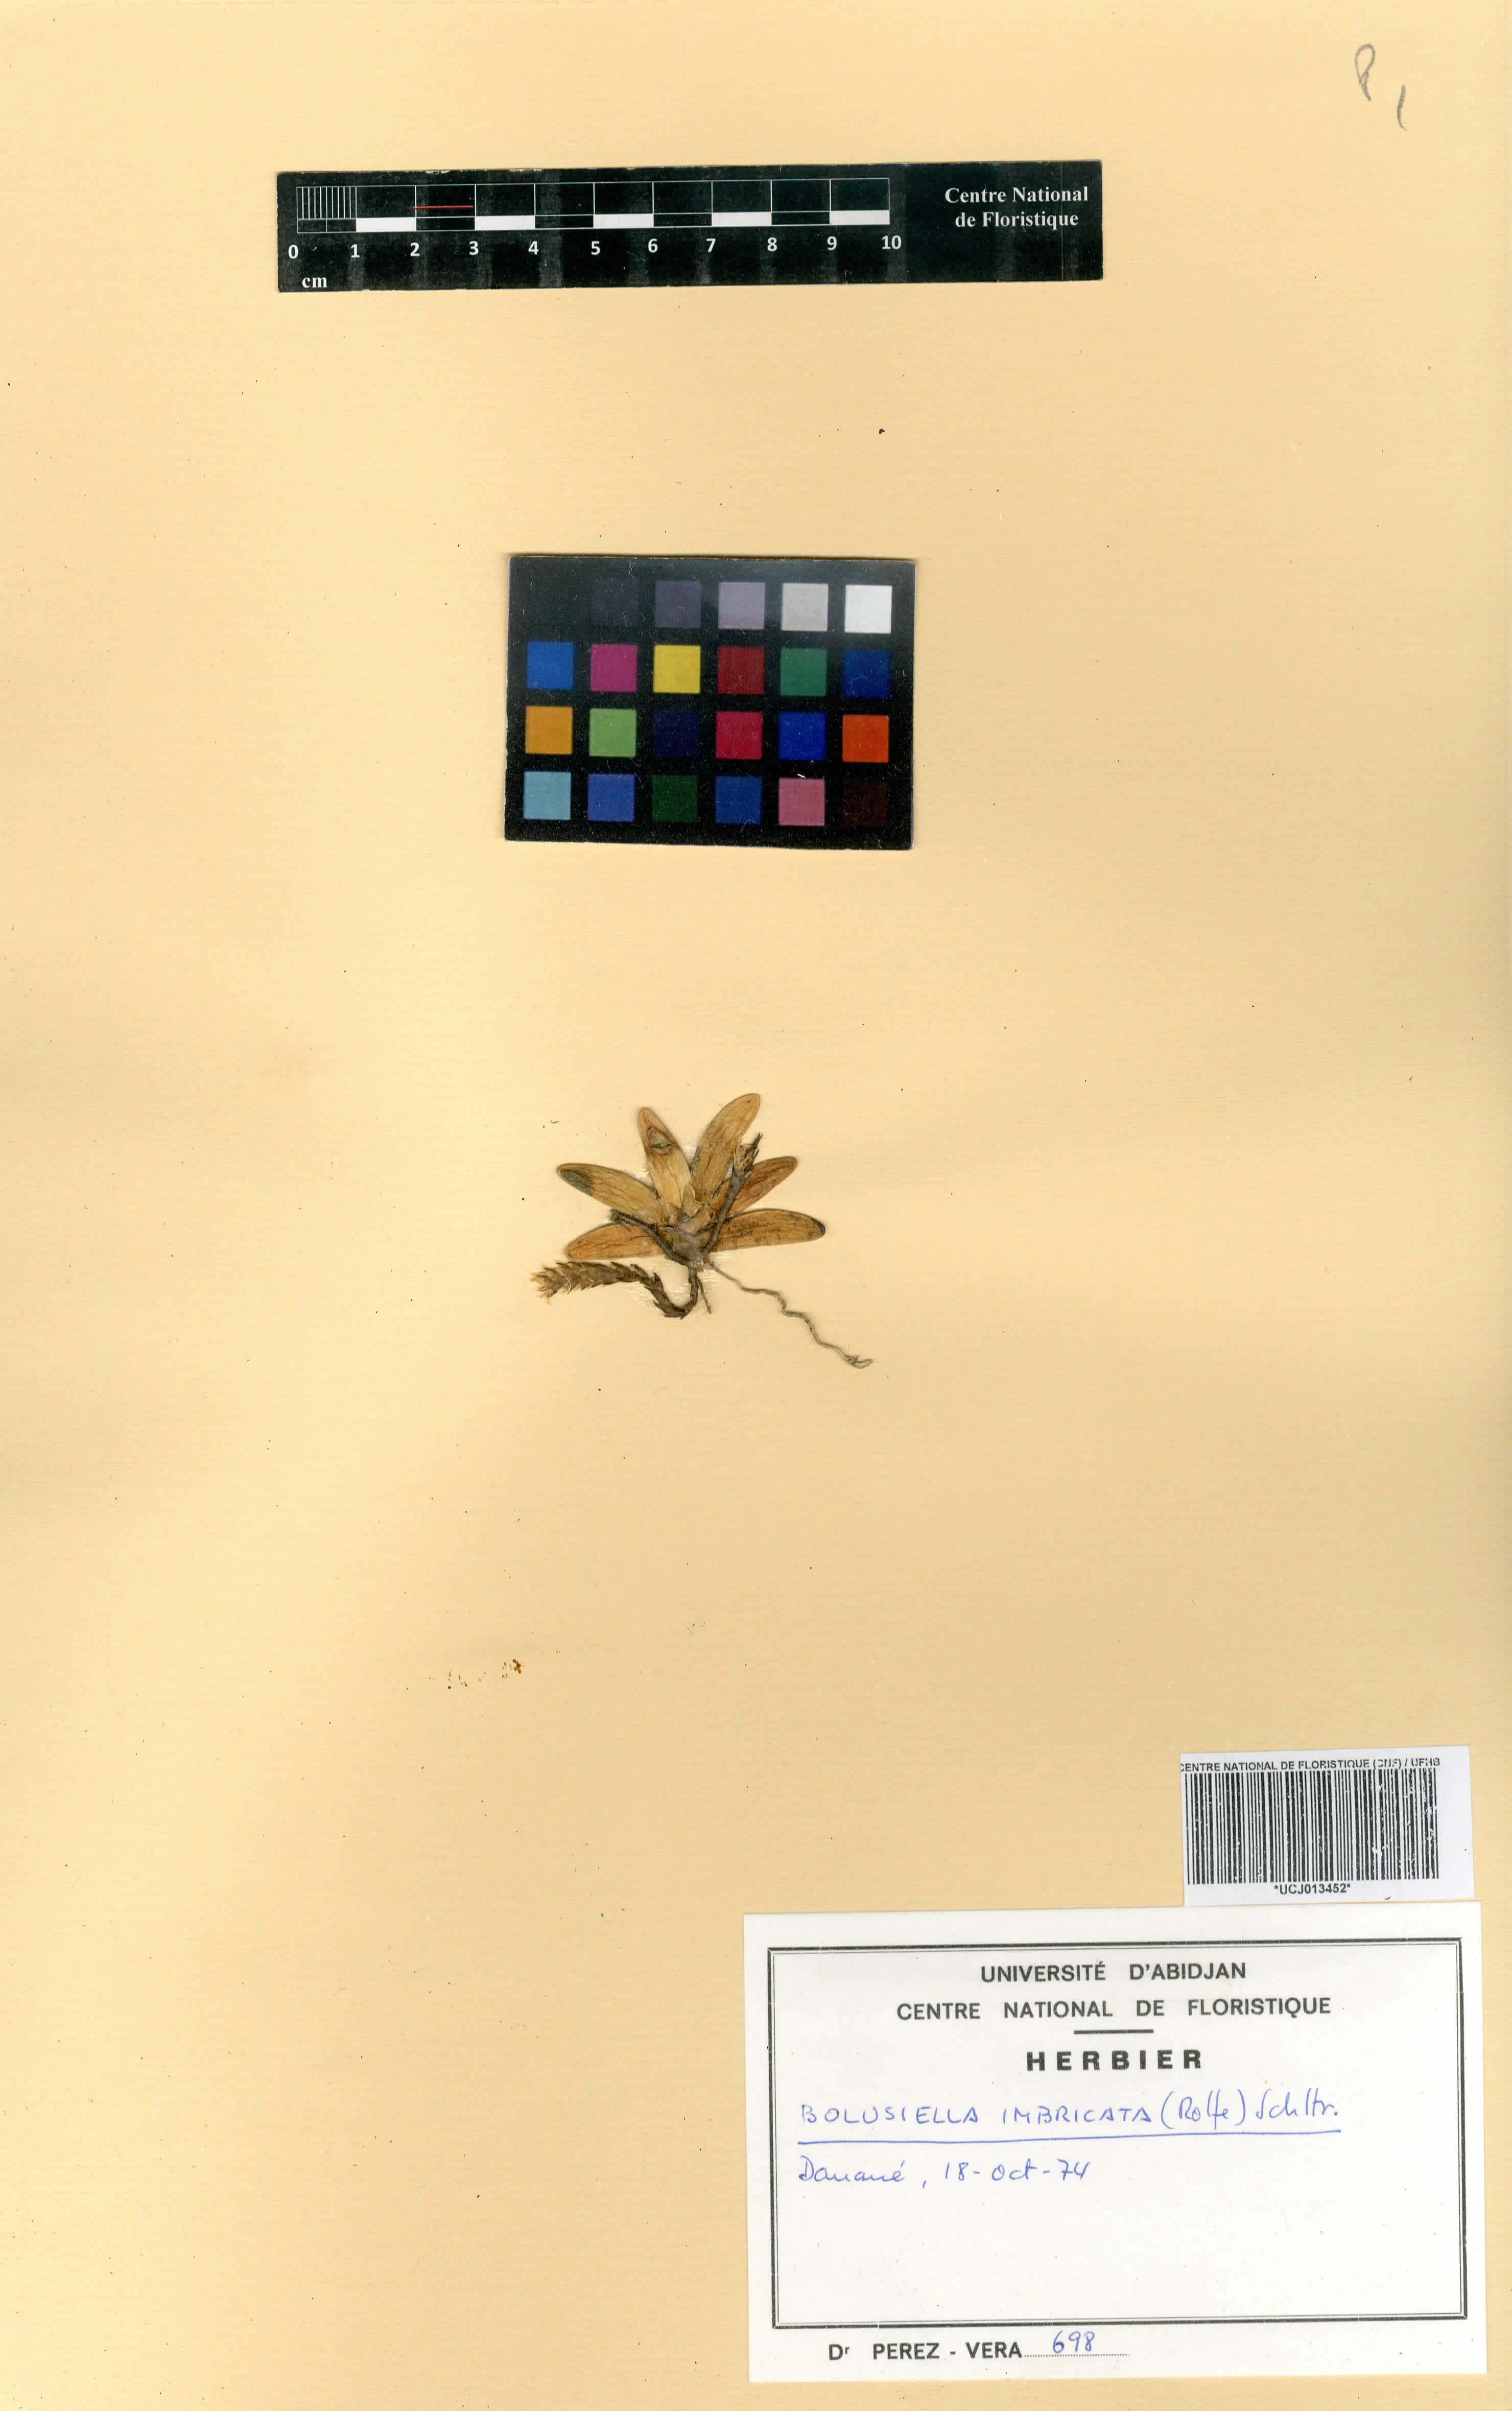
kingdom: Plantae
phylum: Tracheophyta
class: Liliopsida
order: Asparagales
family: Orchidaceae
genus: Bolusiella
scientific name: Bolusiella maudiae
